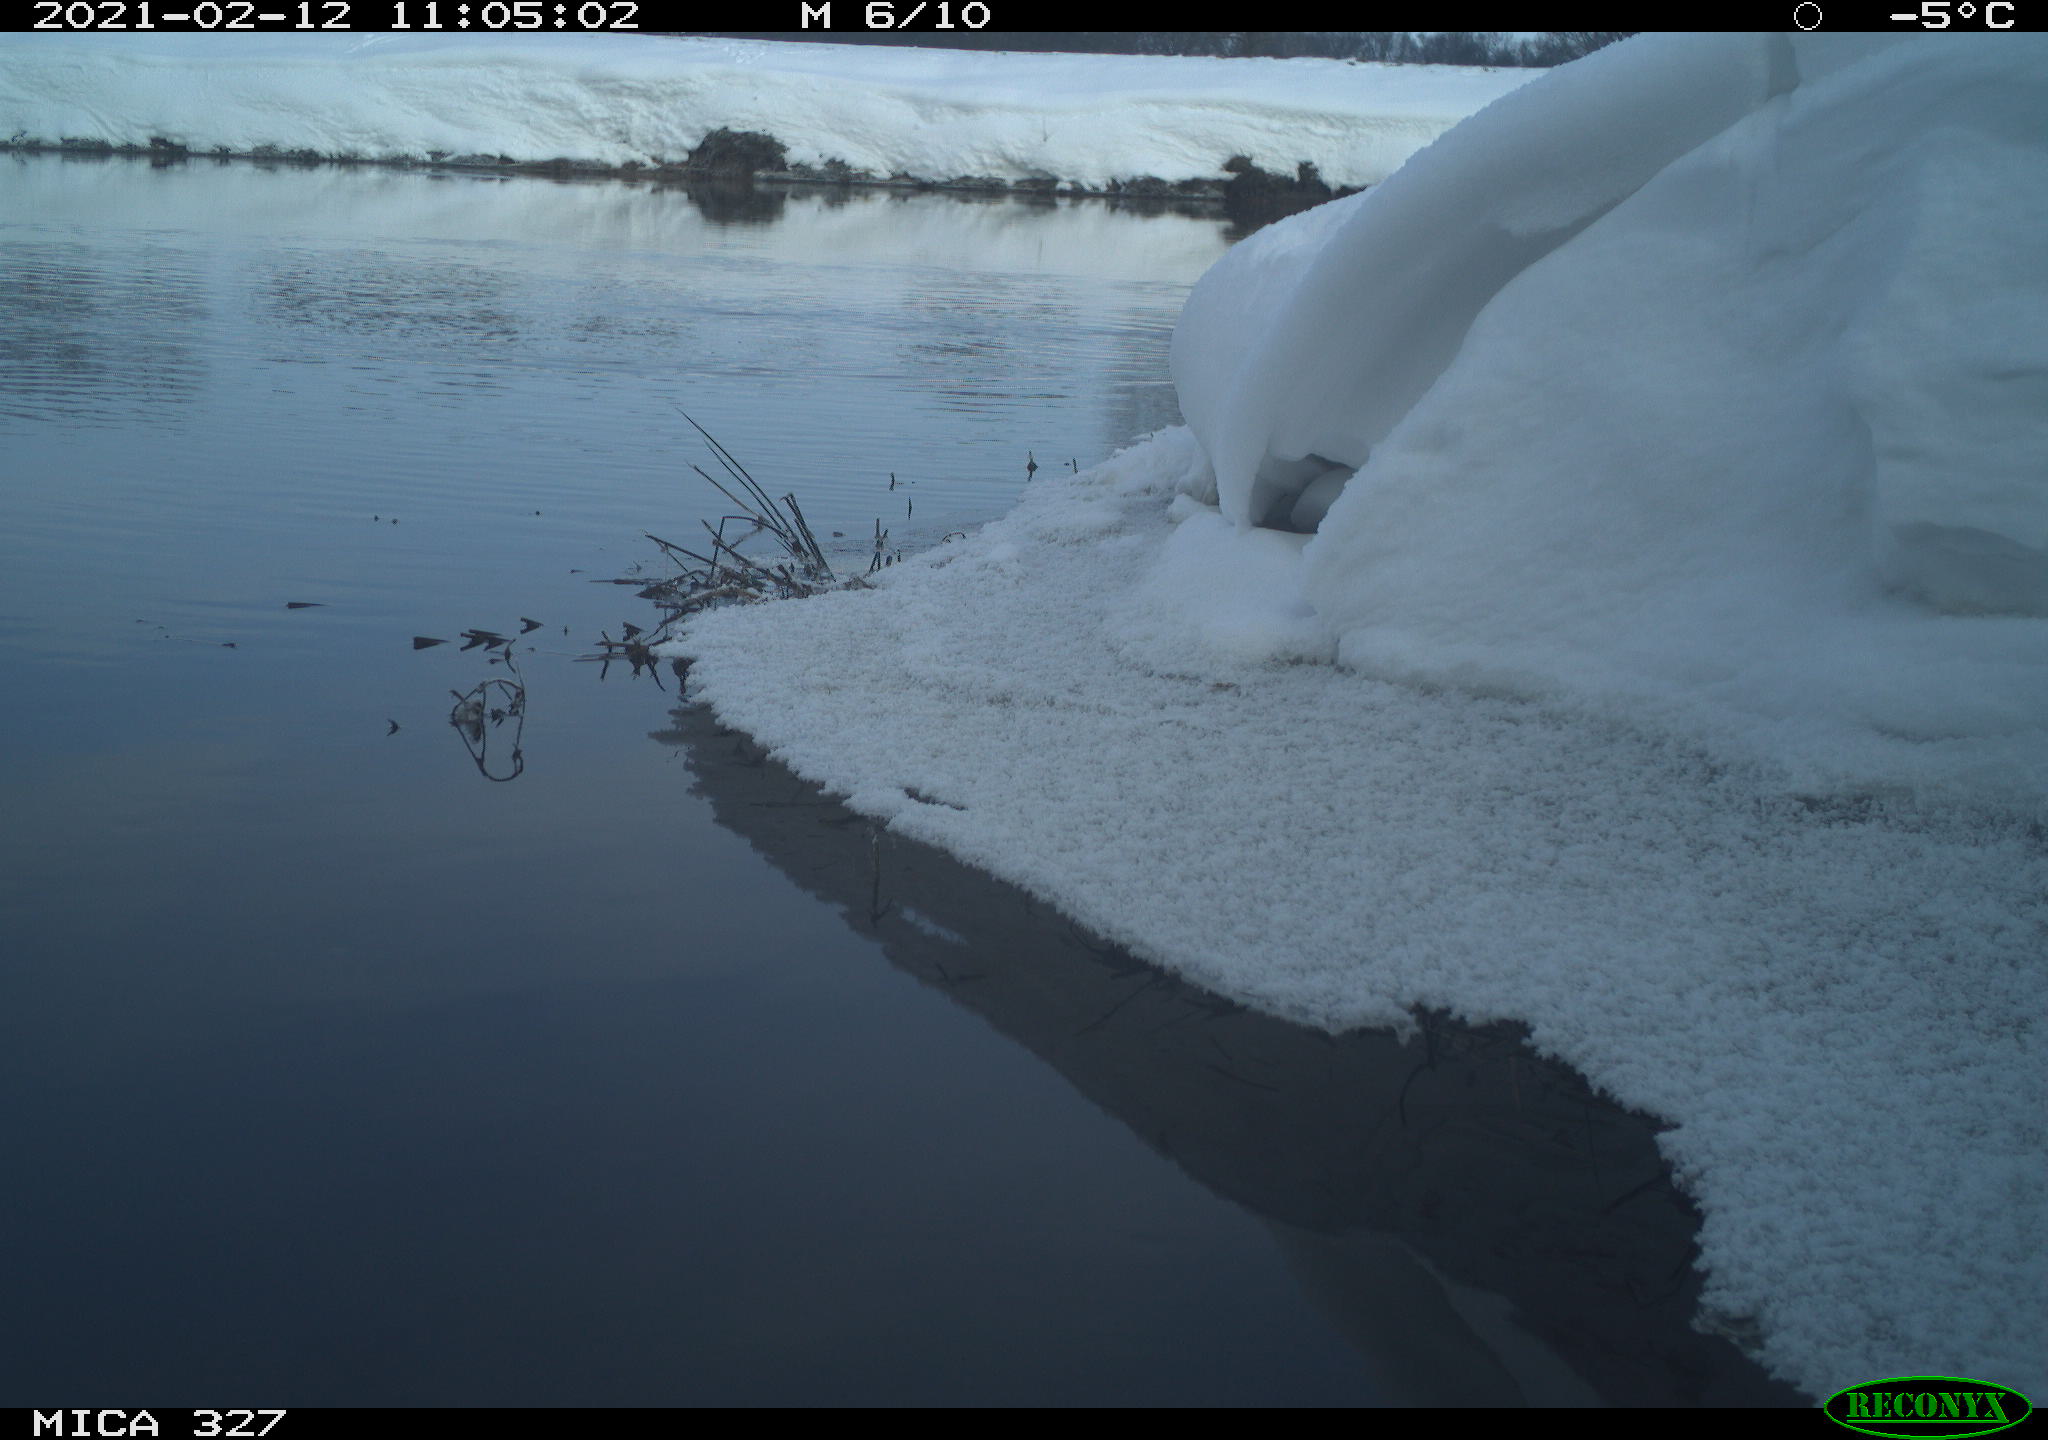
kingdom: Animalia
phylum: Chordata
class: Aves
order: Anseriformes
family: Anatidae
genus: Anas
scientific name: Anas
